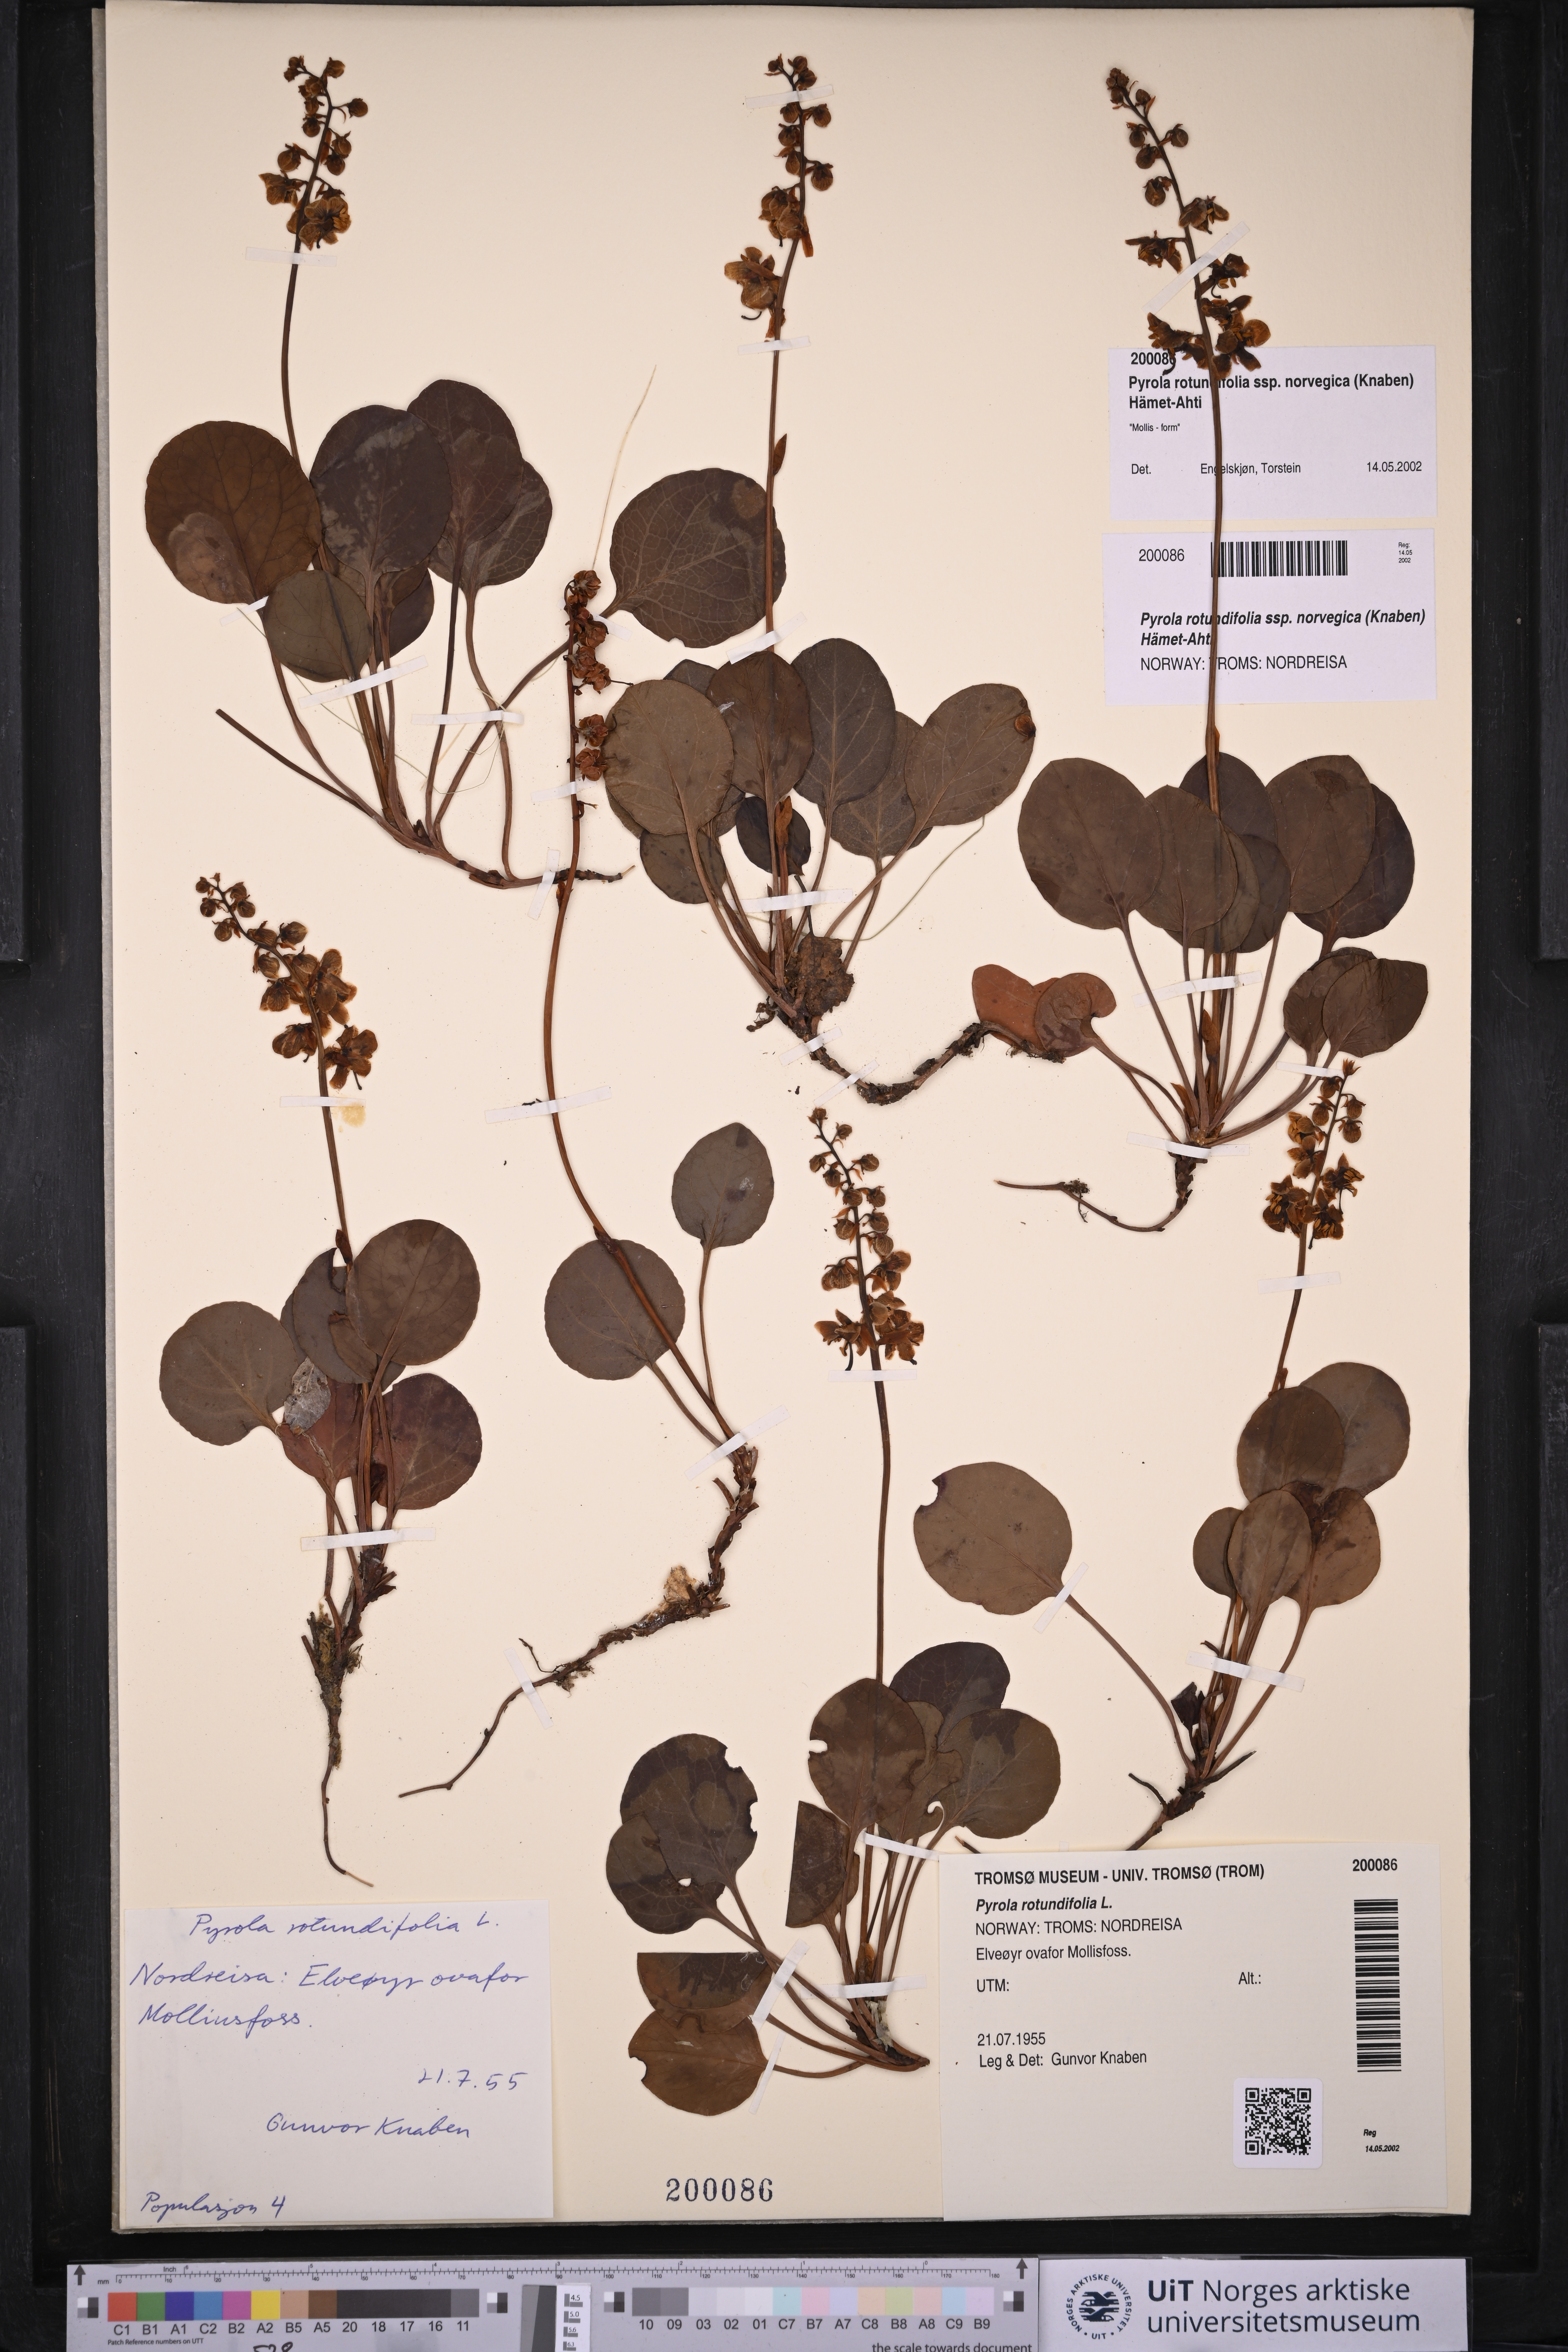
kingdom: Plantae
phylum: Tracheophyta
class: Magnoliopsida
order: Ericales
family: Ericaceae
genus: Pyrola
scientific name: Pyrola rotundifolia
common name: Round-leaved wintergreen
